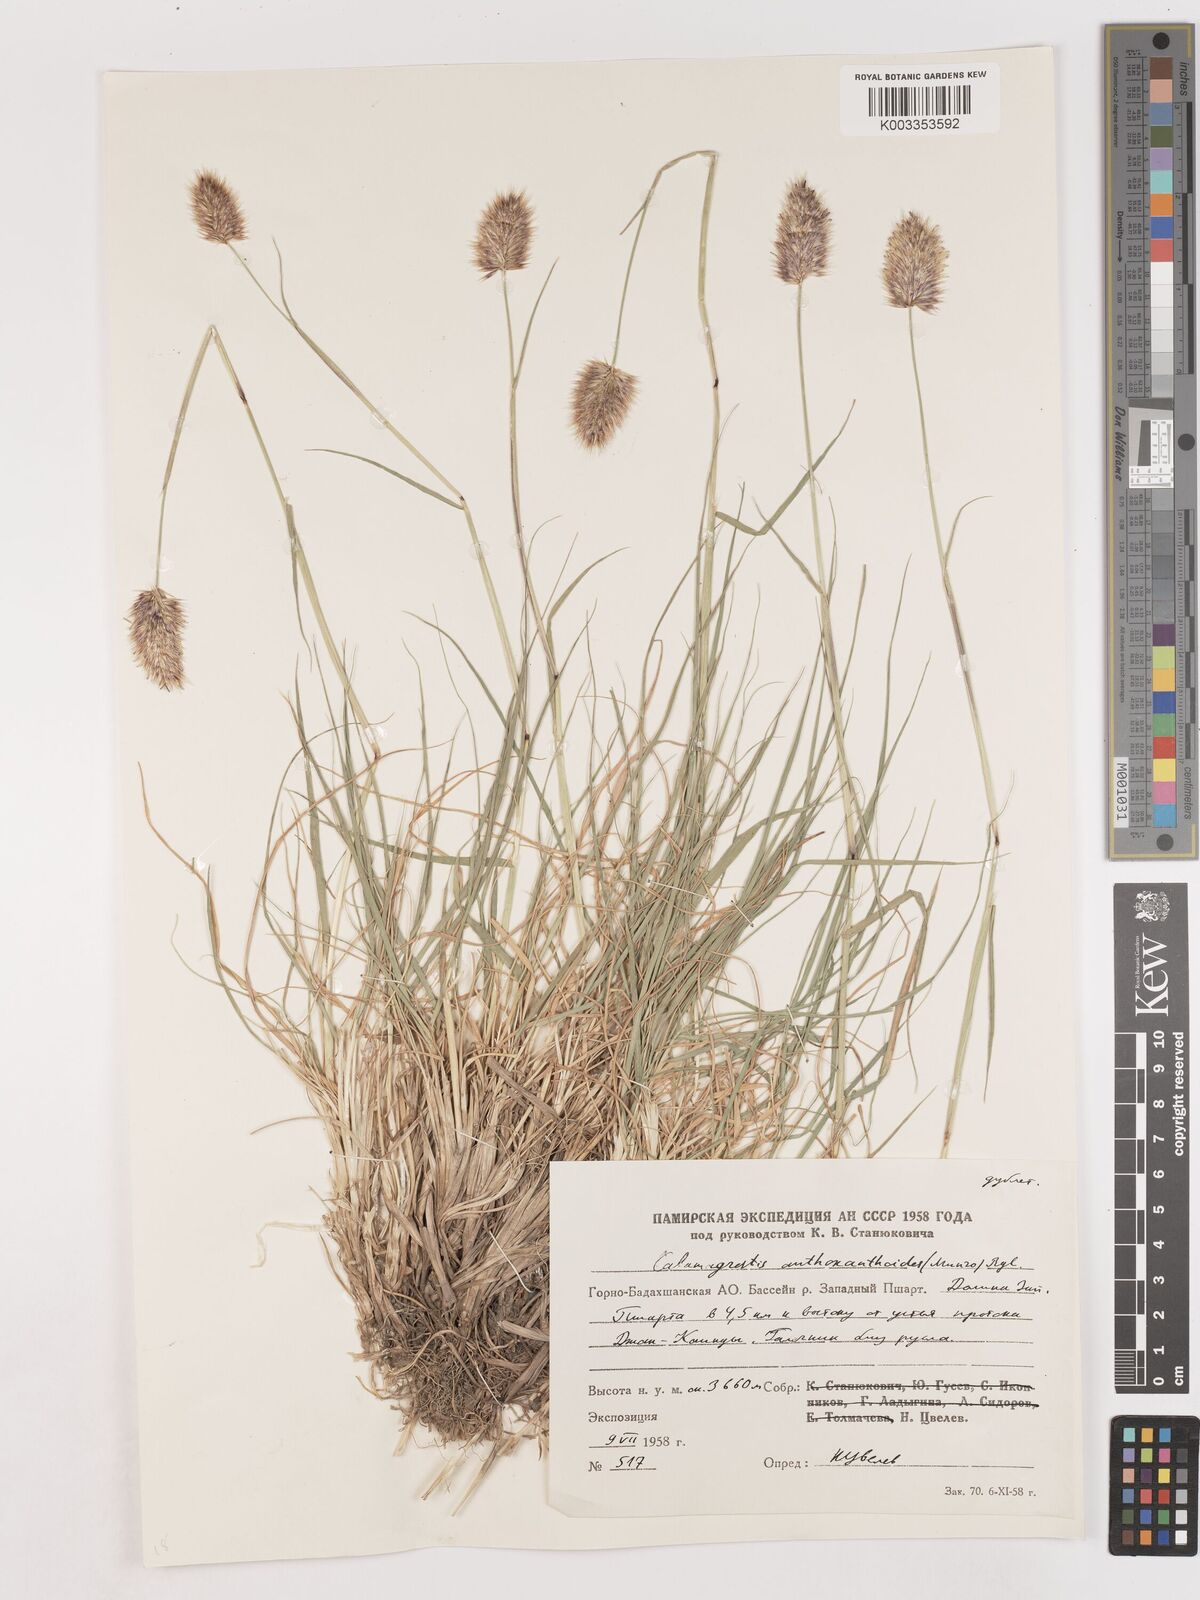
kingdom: Plantae
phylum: Tracheophyta
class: Liliopsida
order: Poales
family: Poaceae
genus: Calamagrostis
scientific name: Calamagrostis anthoxanthoides
